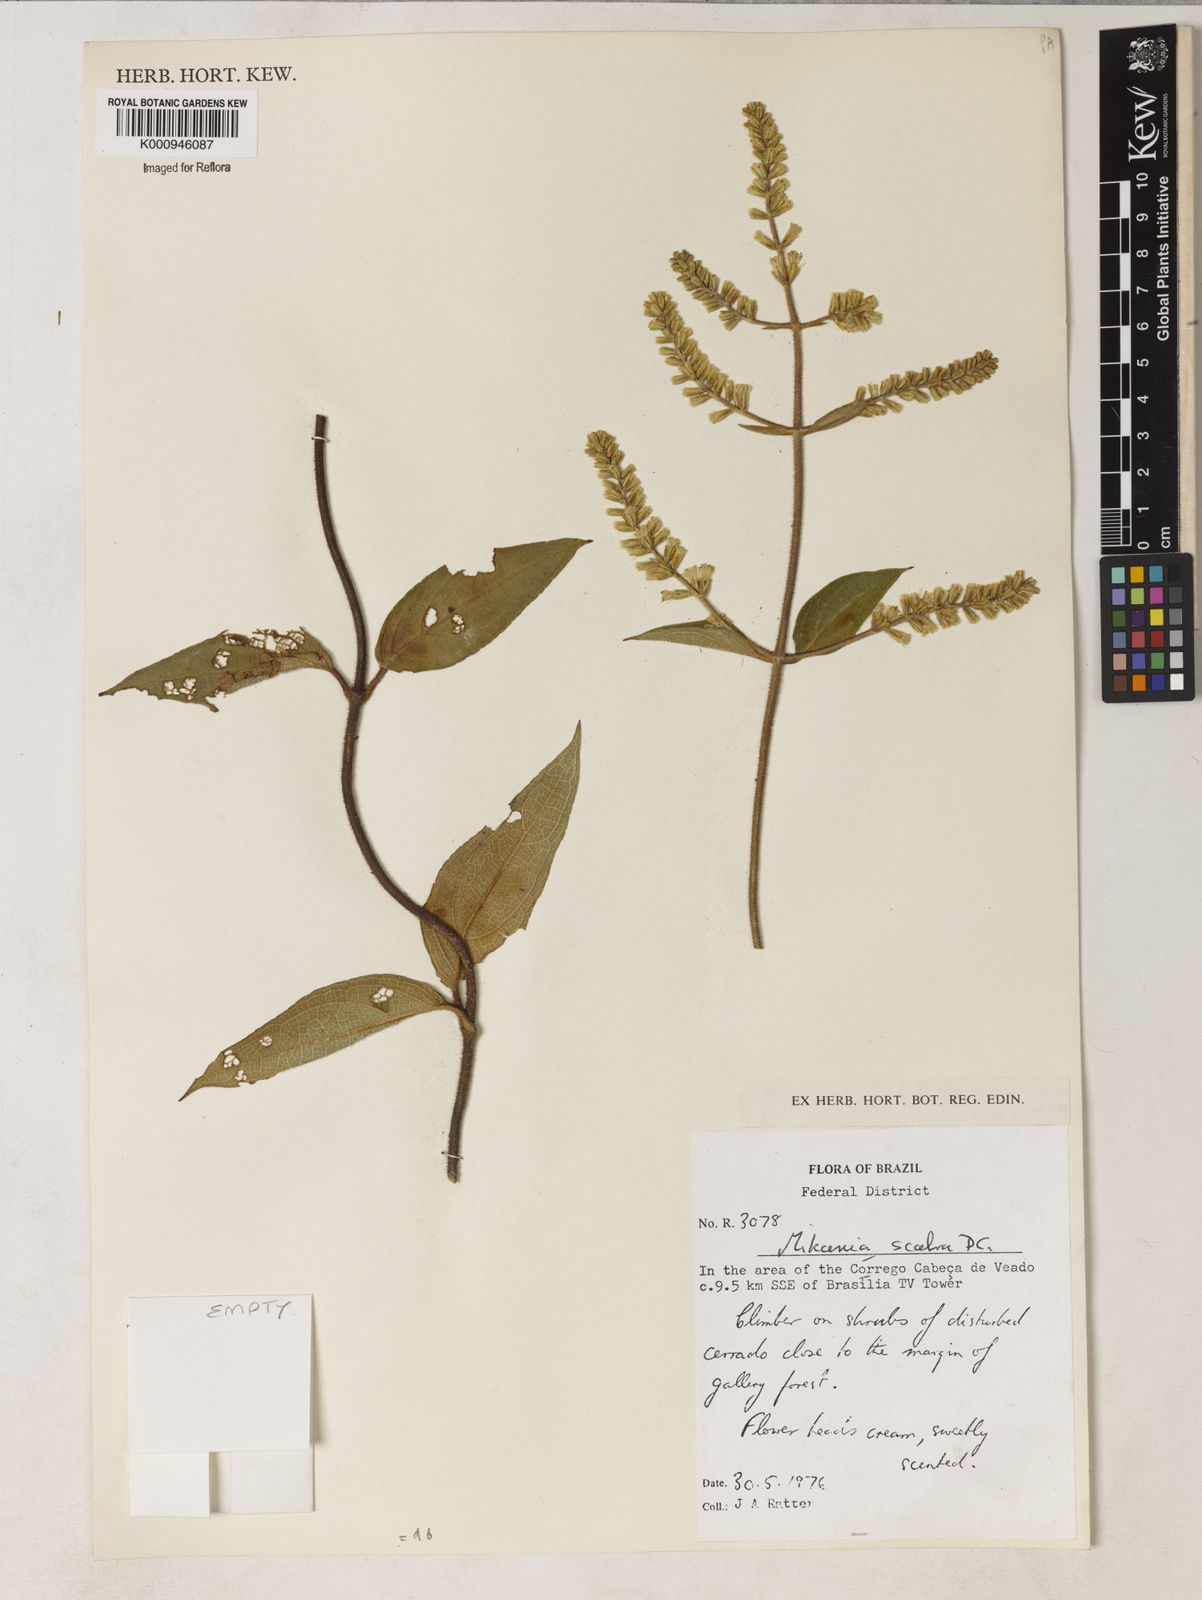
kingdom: Plantae
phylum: Tracheophyta
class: Magnoliopsida
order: Asterales
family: Asteraceae
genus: Mikania
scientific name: Mikania psilostachya
